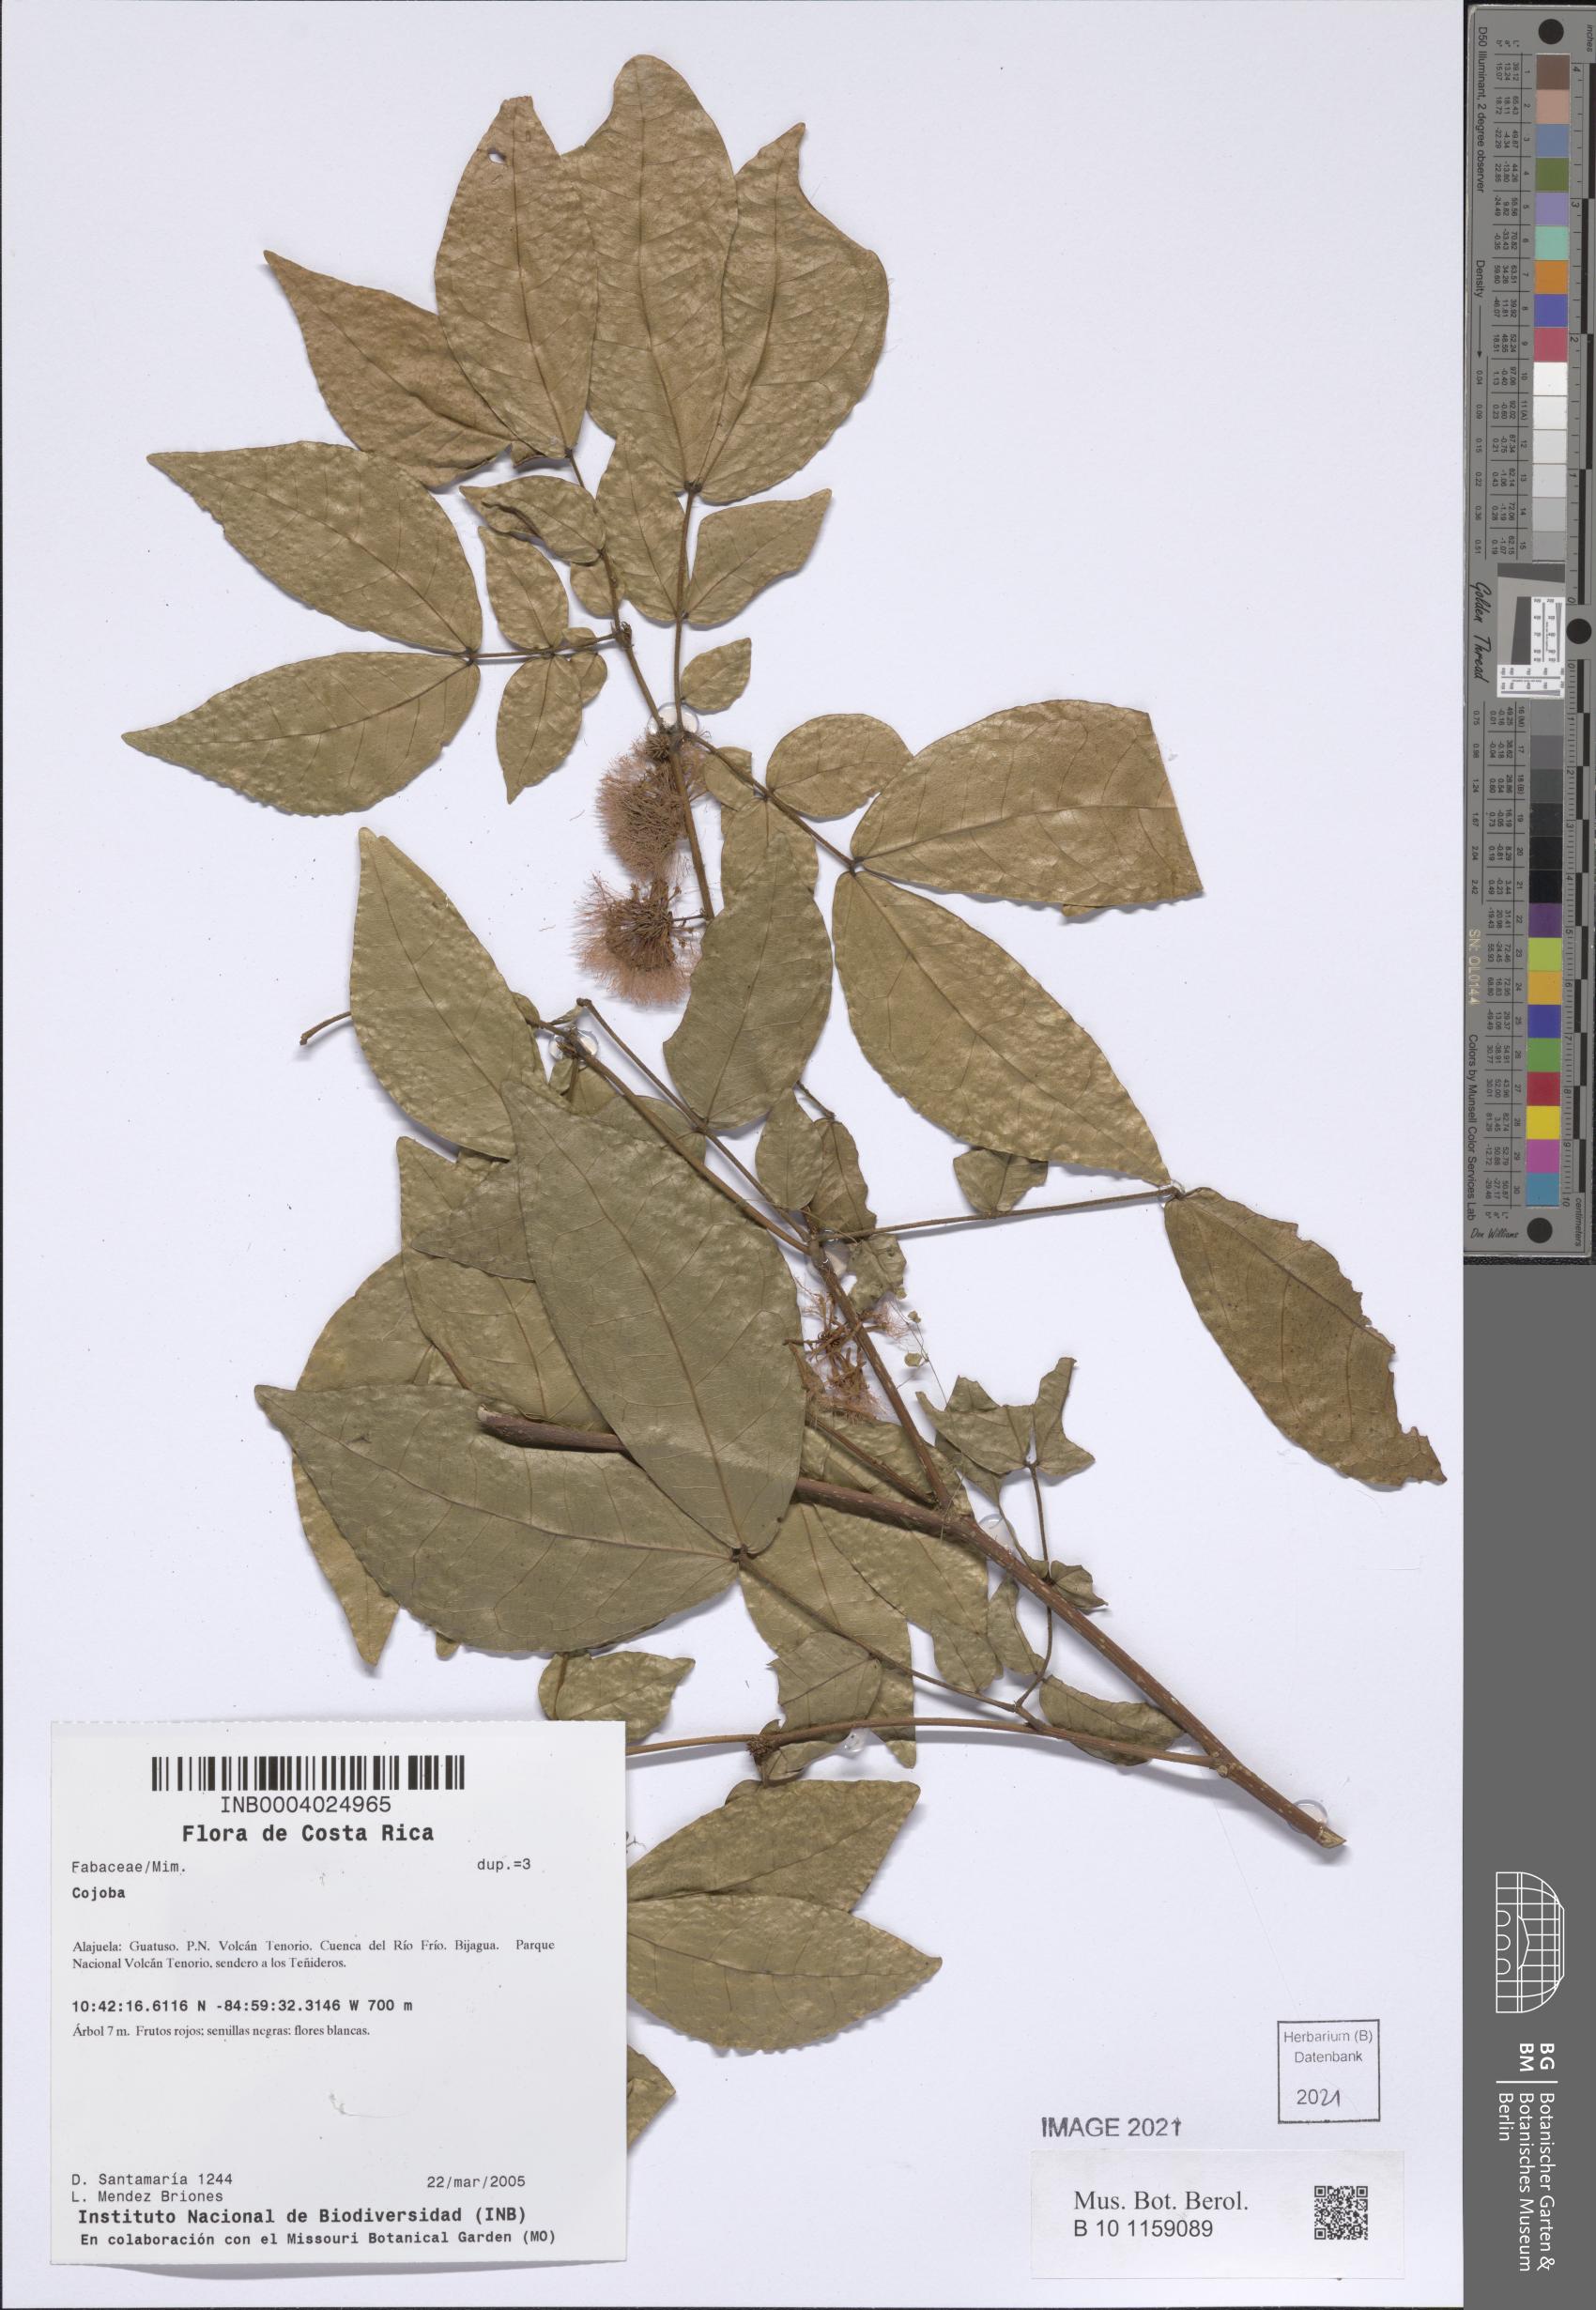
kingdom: Plantae
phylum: Tracheophyta
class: Magnoliopsida
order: Fabales
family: Fabaceae
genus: Cojoba
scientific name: Cojoba
